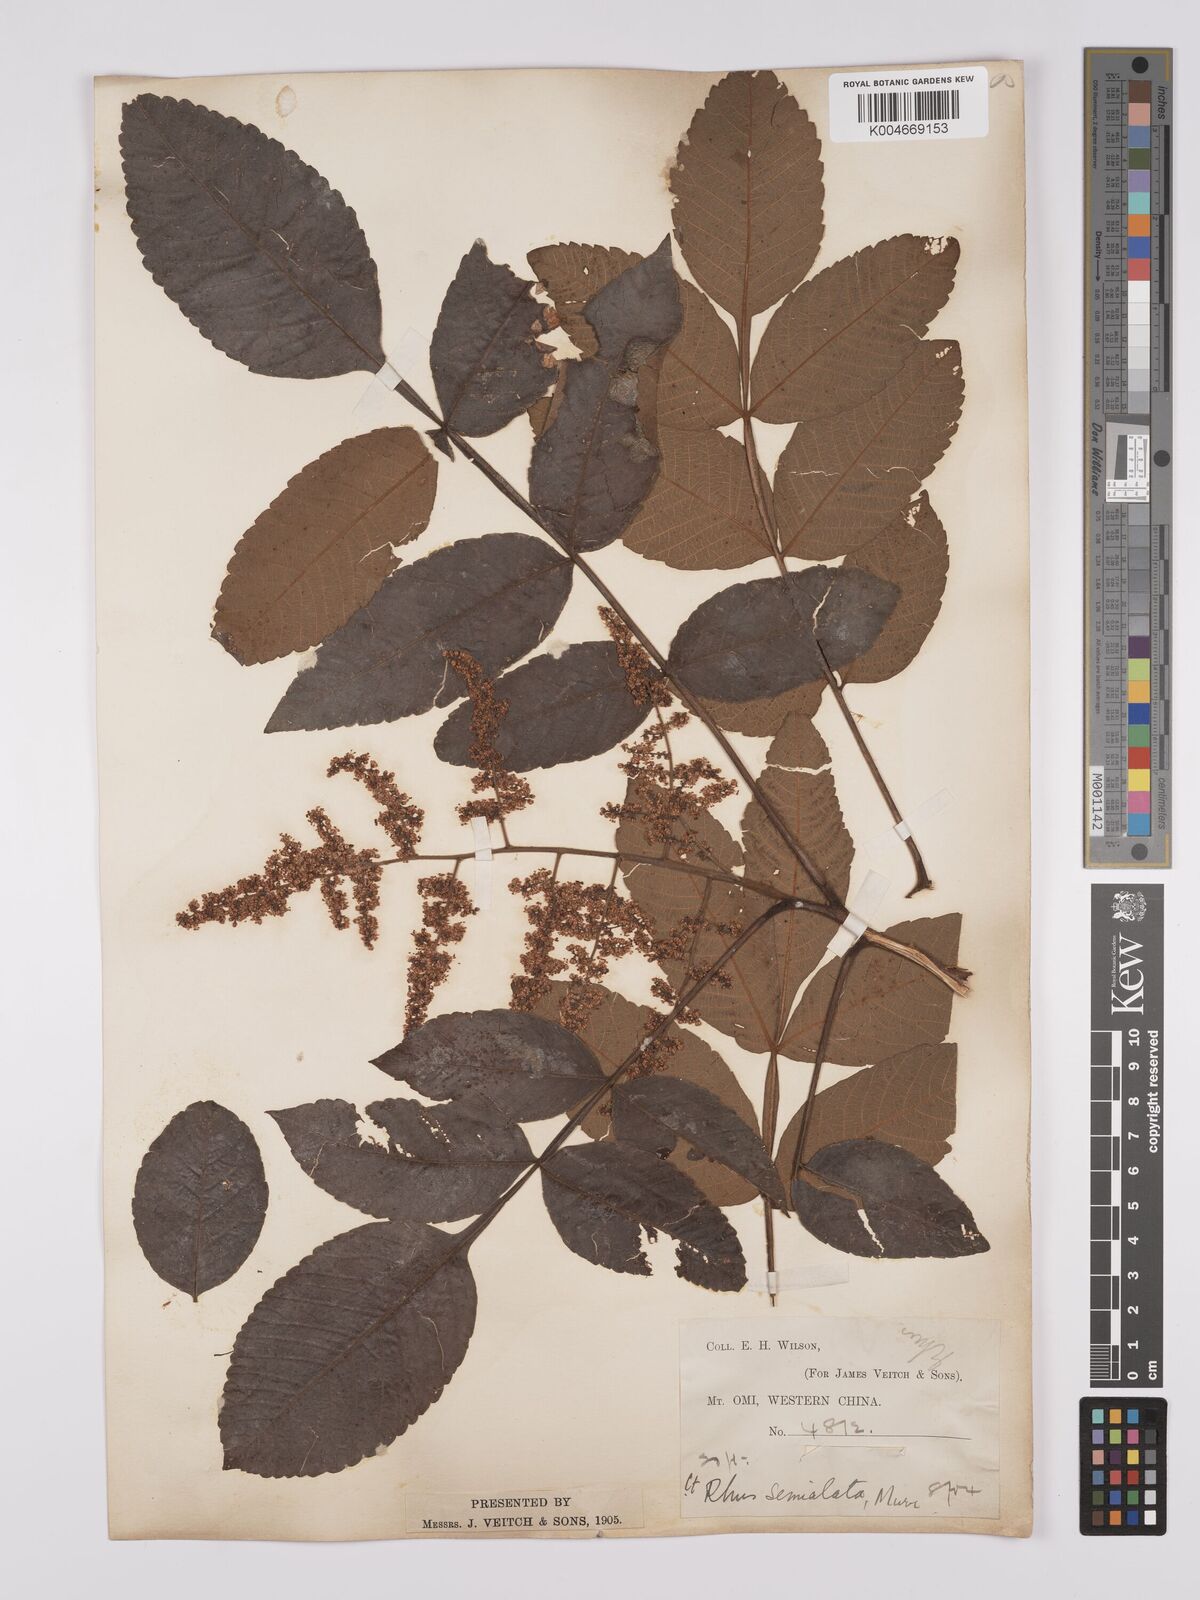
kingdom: Plantae
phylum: Tracheophyta
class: Magnoliopsida
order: Sapindales
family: Anacardiaceae
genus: Rhus
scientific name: Rhus chinensis
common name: Chinese gall
